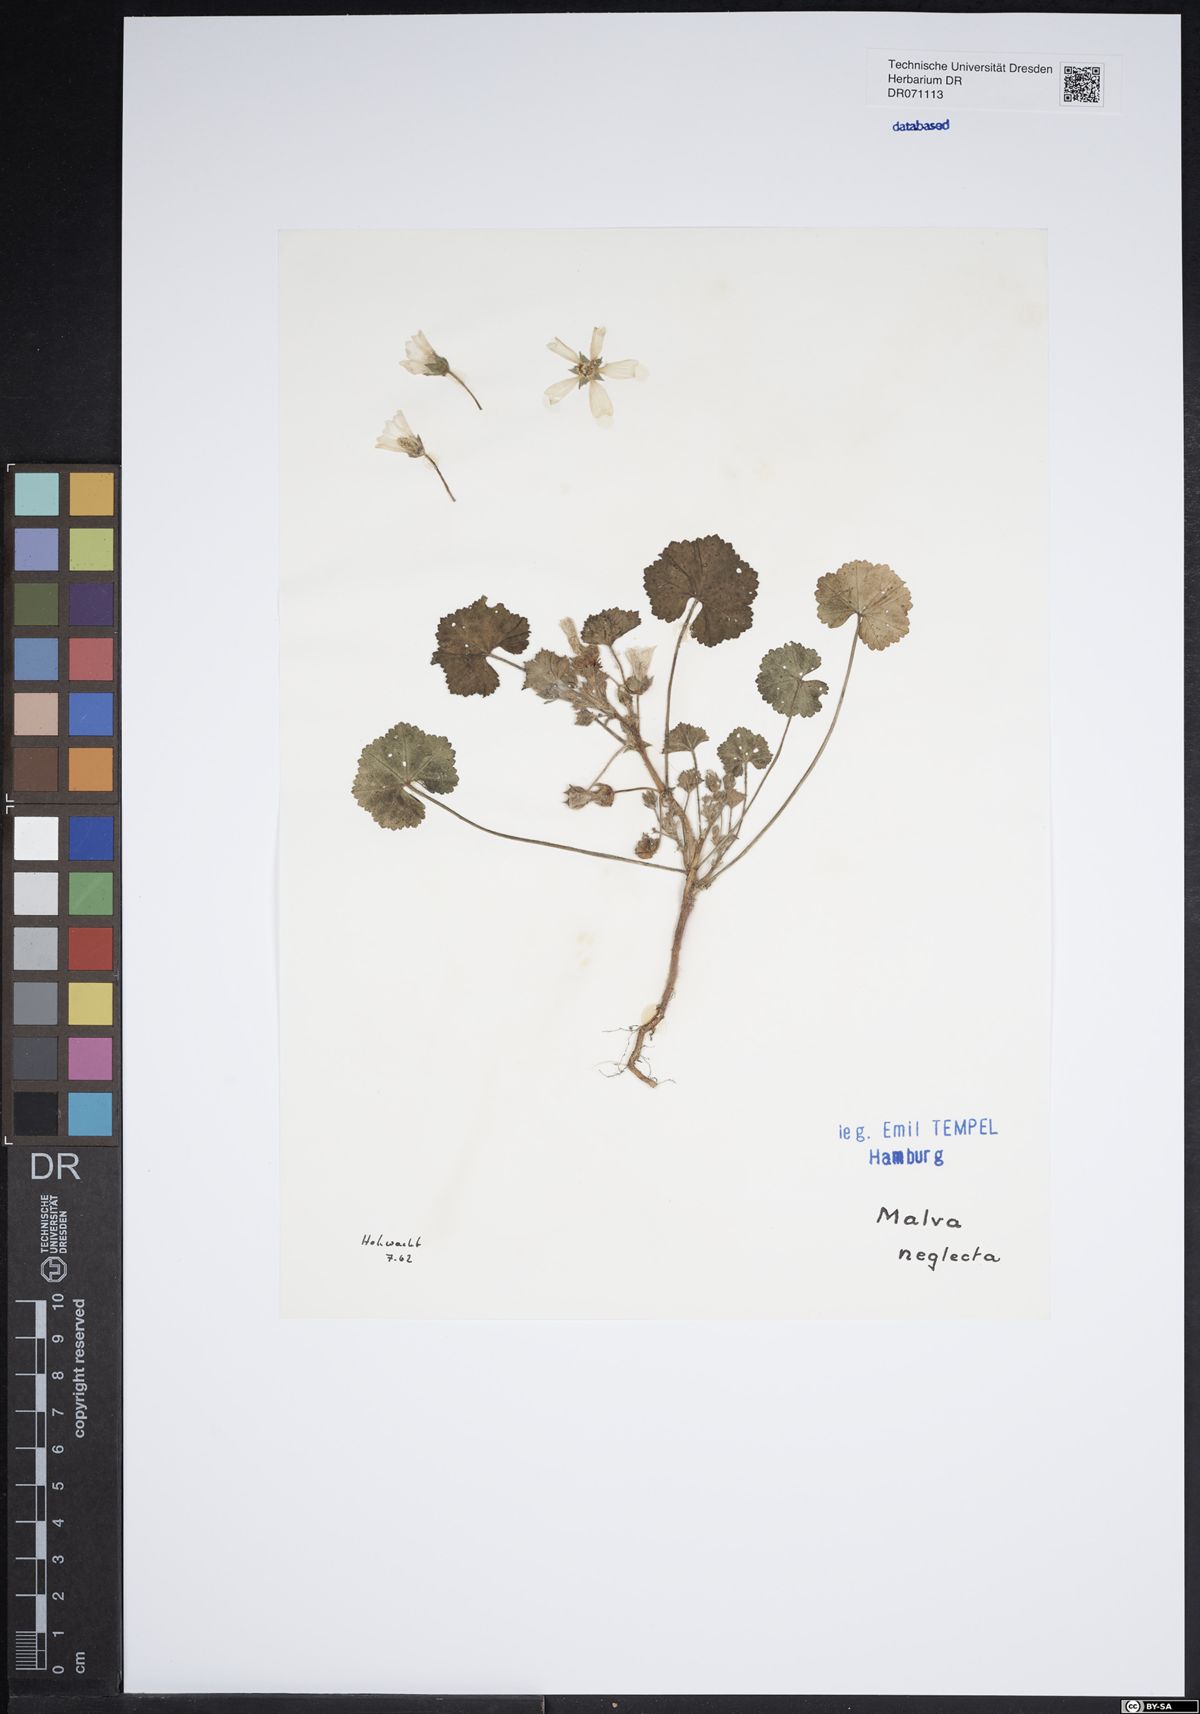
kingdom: Plantae
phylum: Tracheophyta
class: Magnoliopsida
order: Malvales
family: Malvaceae
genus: Malva
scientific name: Malva neglecta
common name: Common mallow
